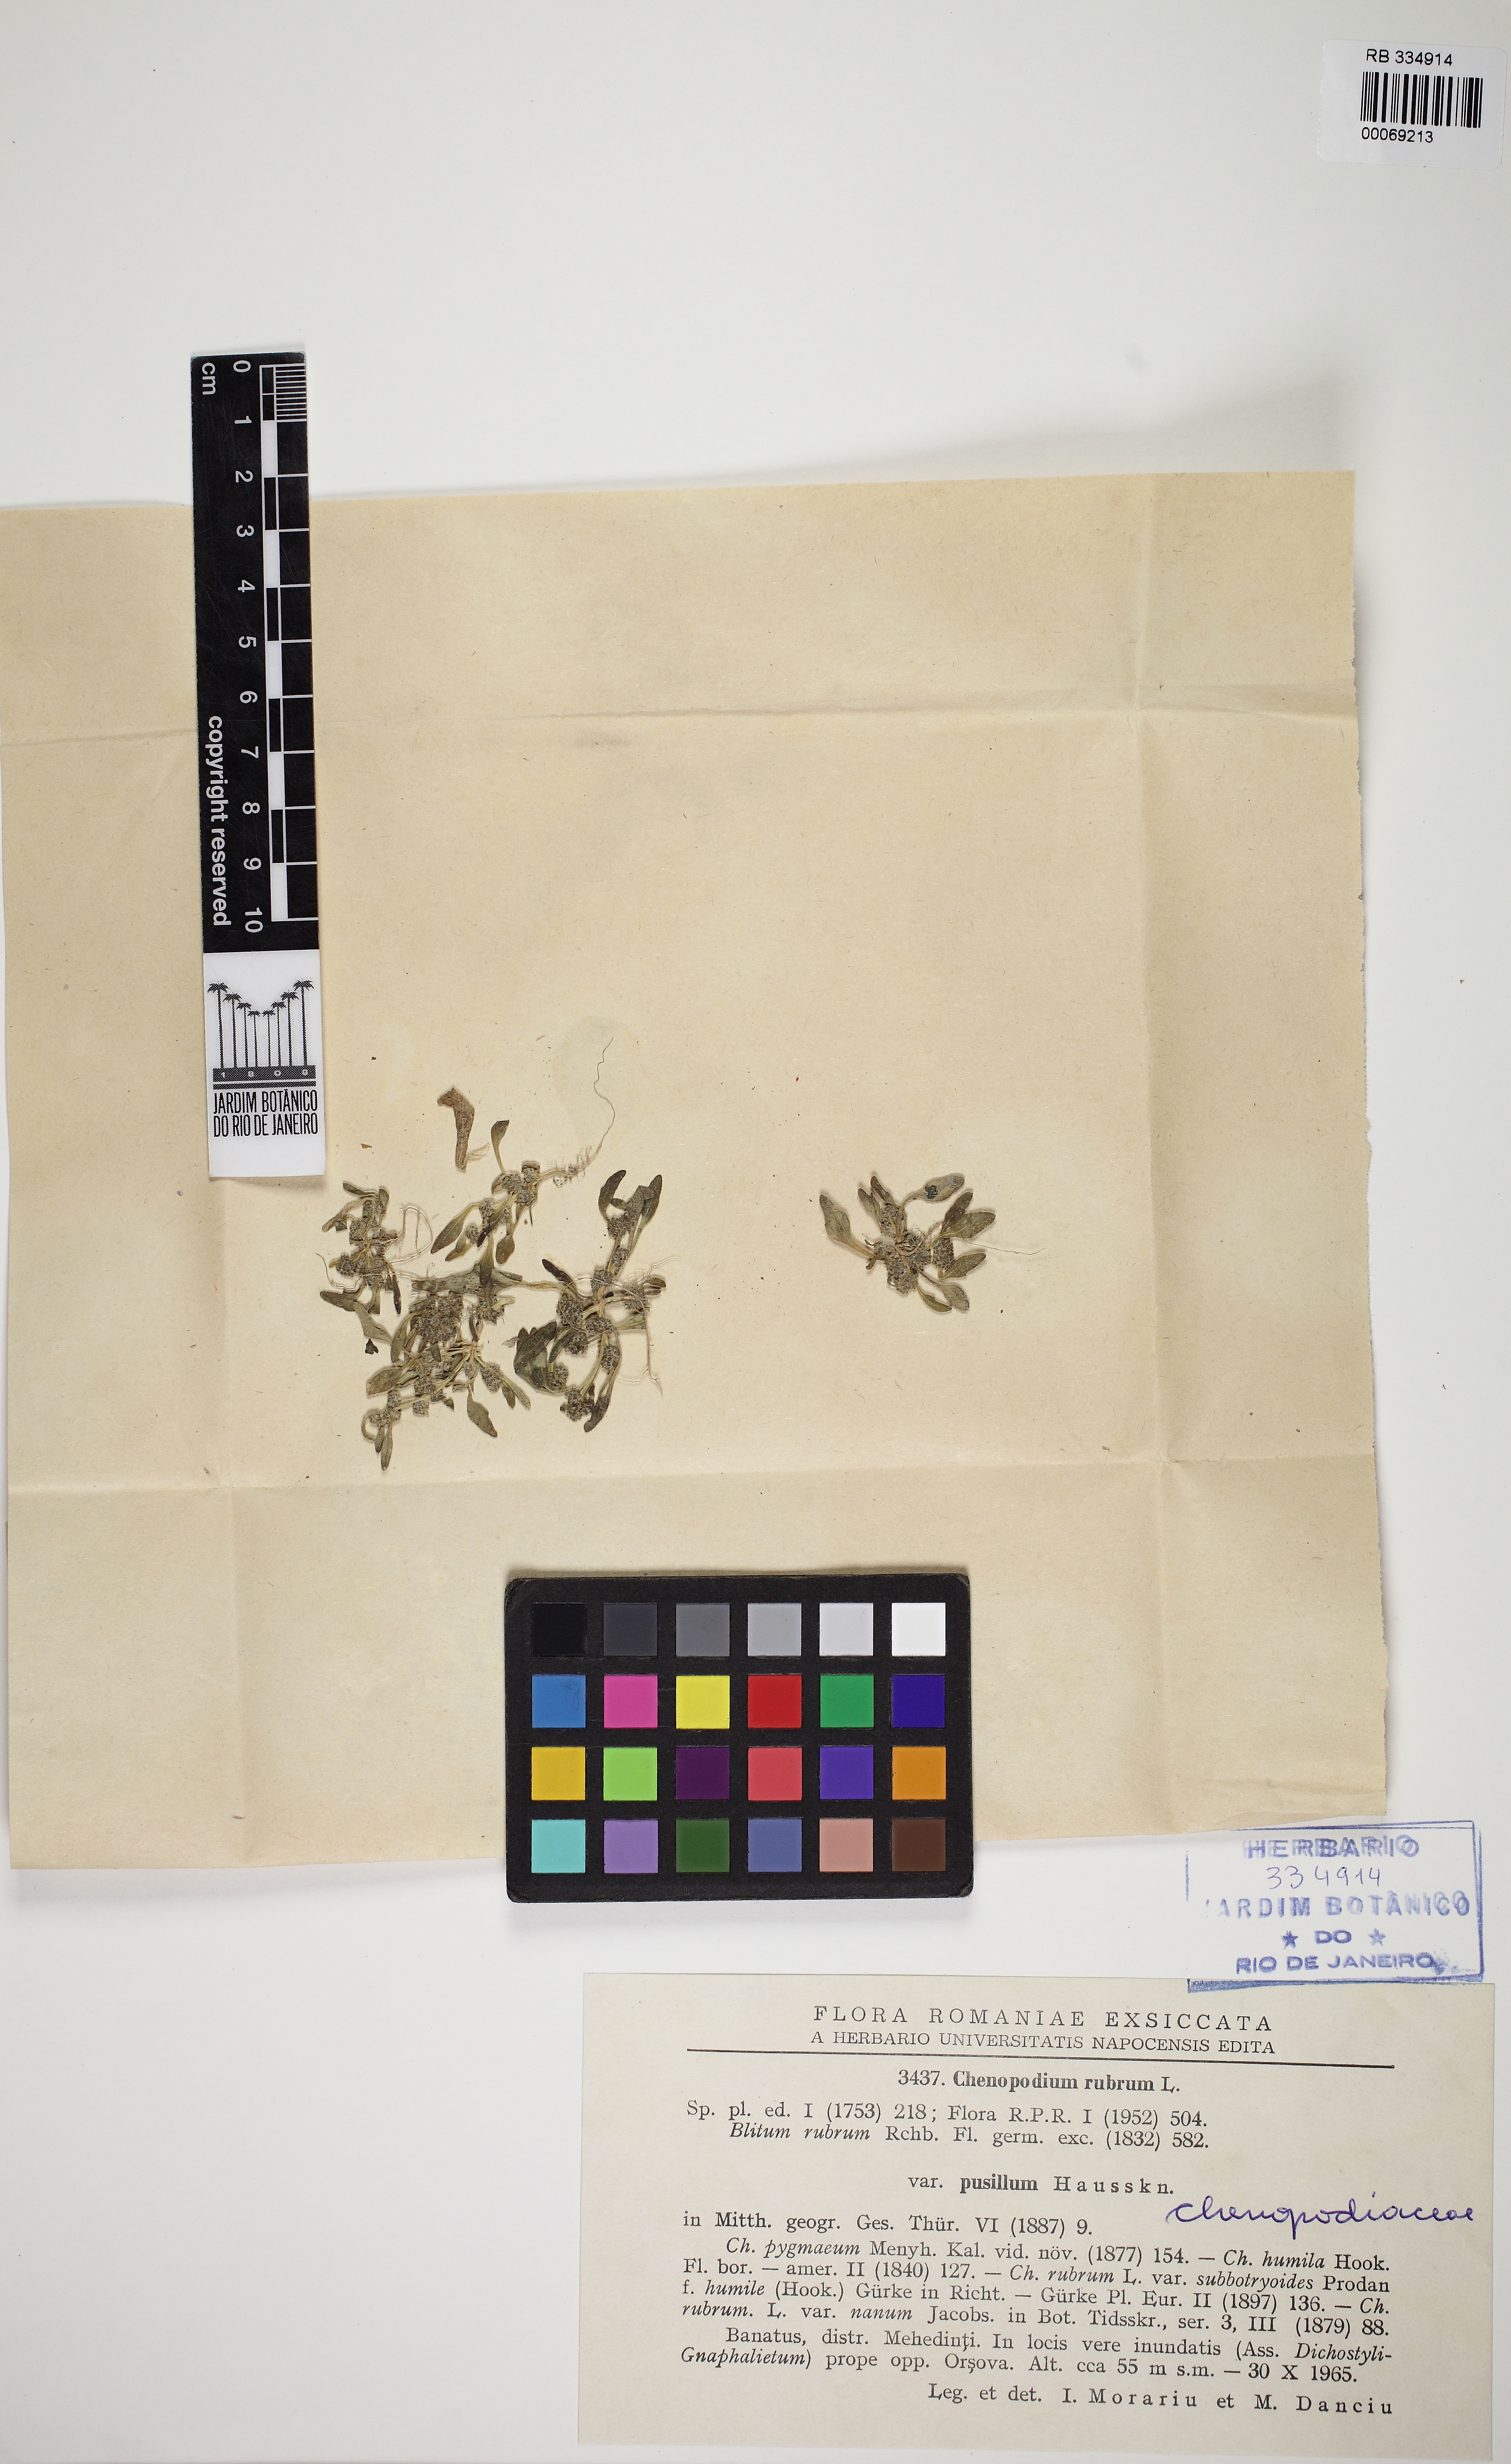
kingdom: Plantae
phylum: Tracheophyta
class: Magnoliopsida
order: Caryophyllales
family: Amaranthaceae
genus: Oxybasis
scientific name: Oxybasis rubra
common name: Red goosefoot
